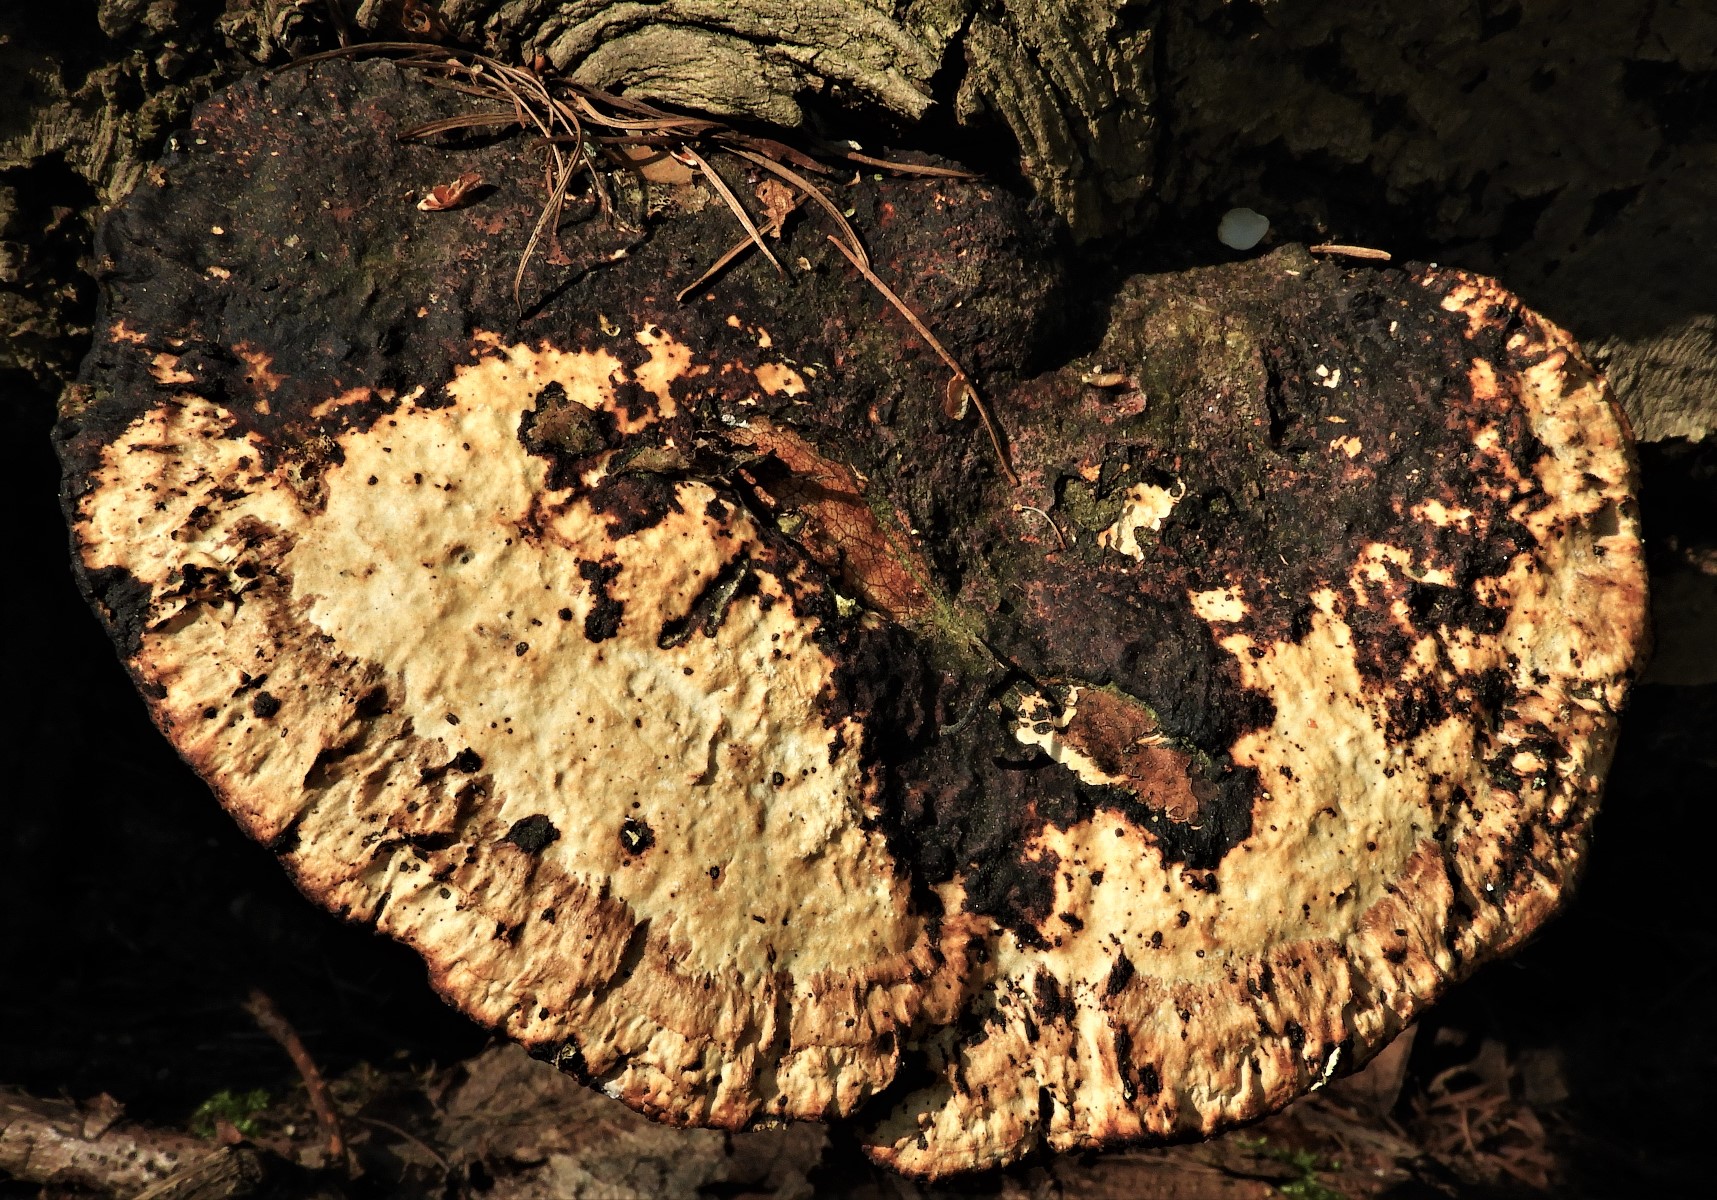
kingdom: Fungi
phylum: Basidiomycota
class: Agaricomycetes
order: Polyporales
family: Polyporaceae
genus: Daedaleopsis
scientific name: Daedaleopsis confragosa
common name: rødmende læderporesvamp
